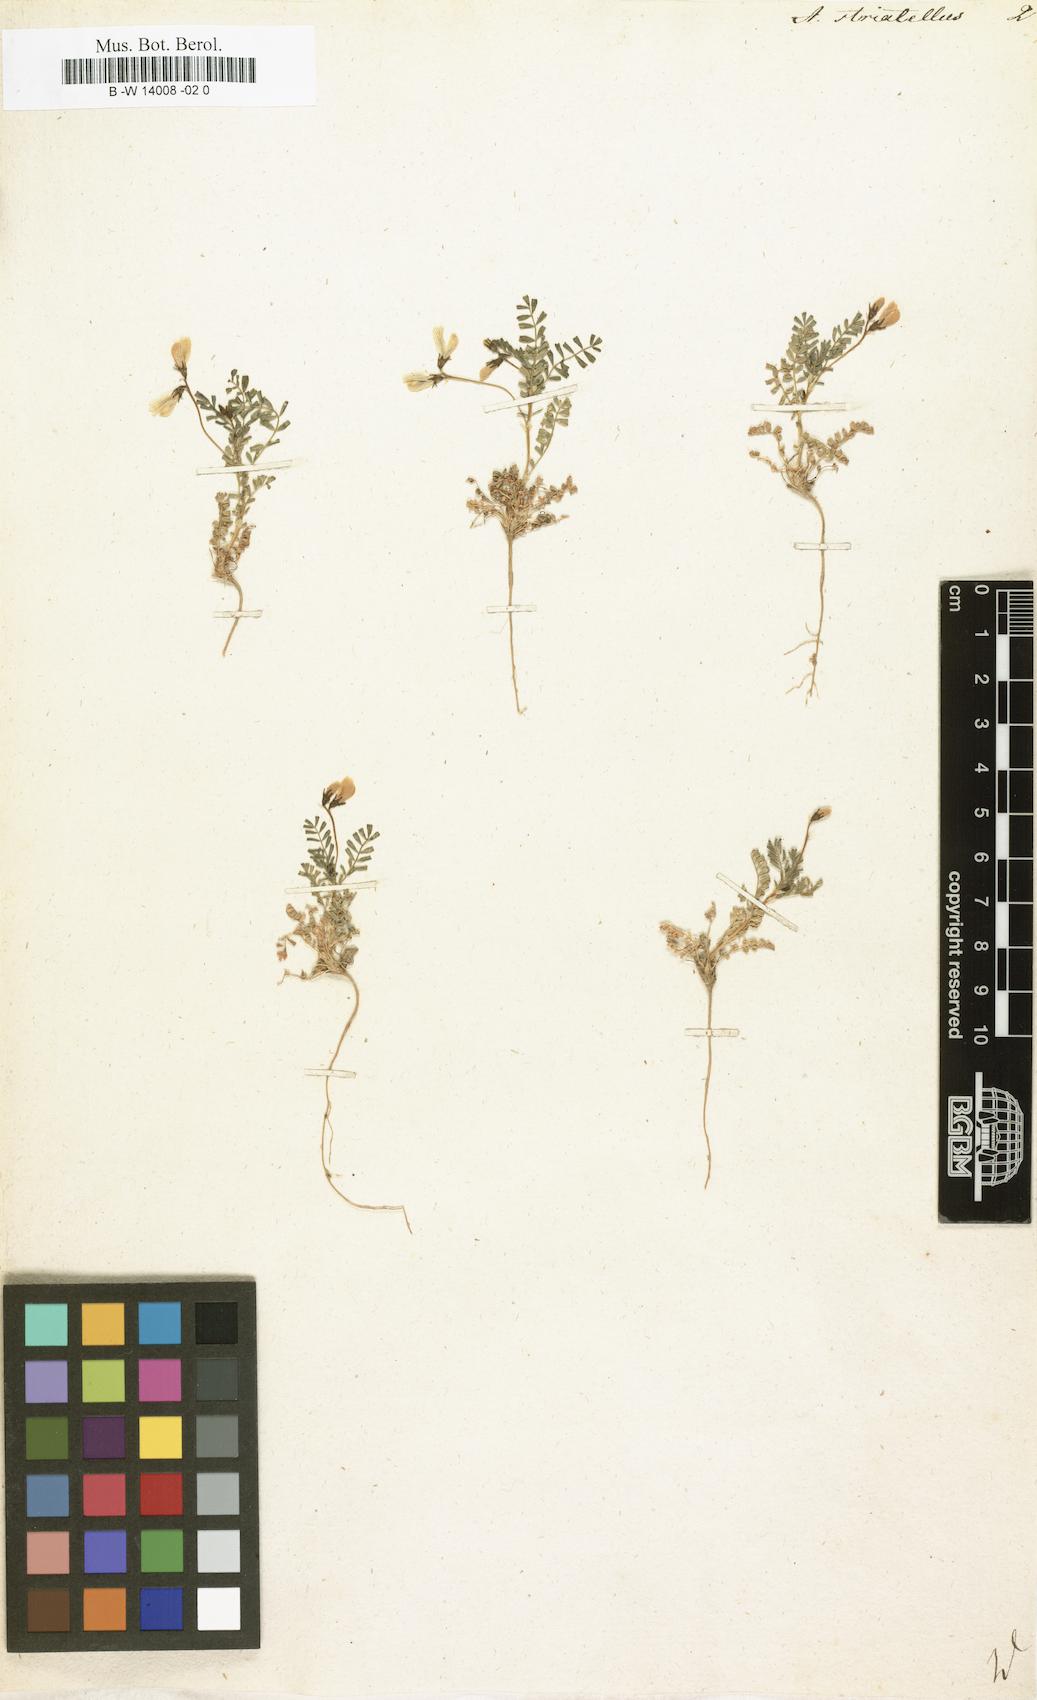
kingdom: Plantae
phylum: Tracheophyta
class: Magnoliopsida
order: Fabales
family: Fabaceae
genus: Astragalus
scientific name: Astragalus guttatus
